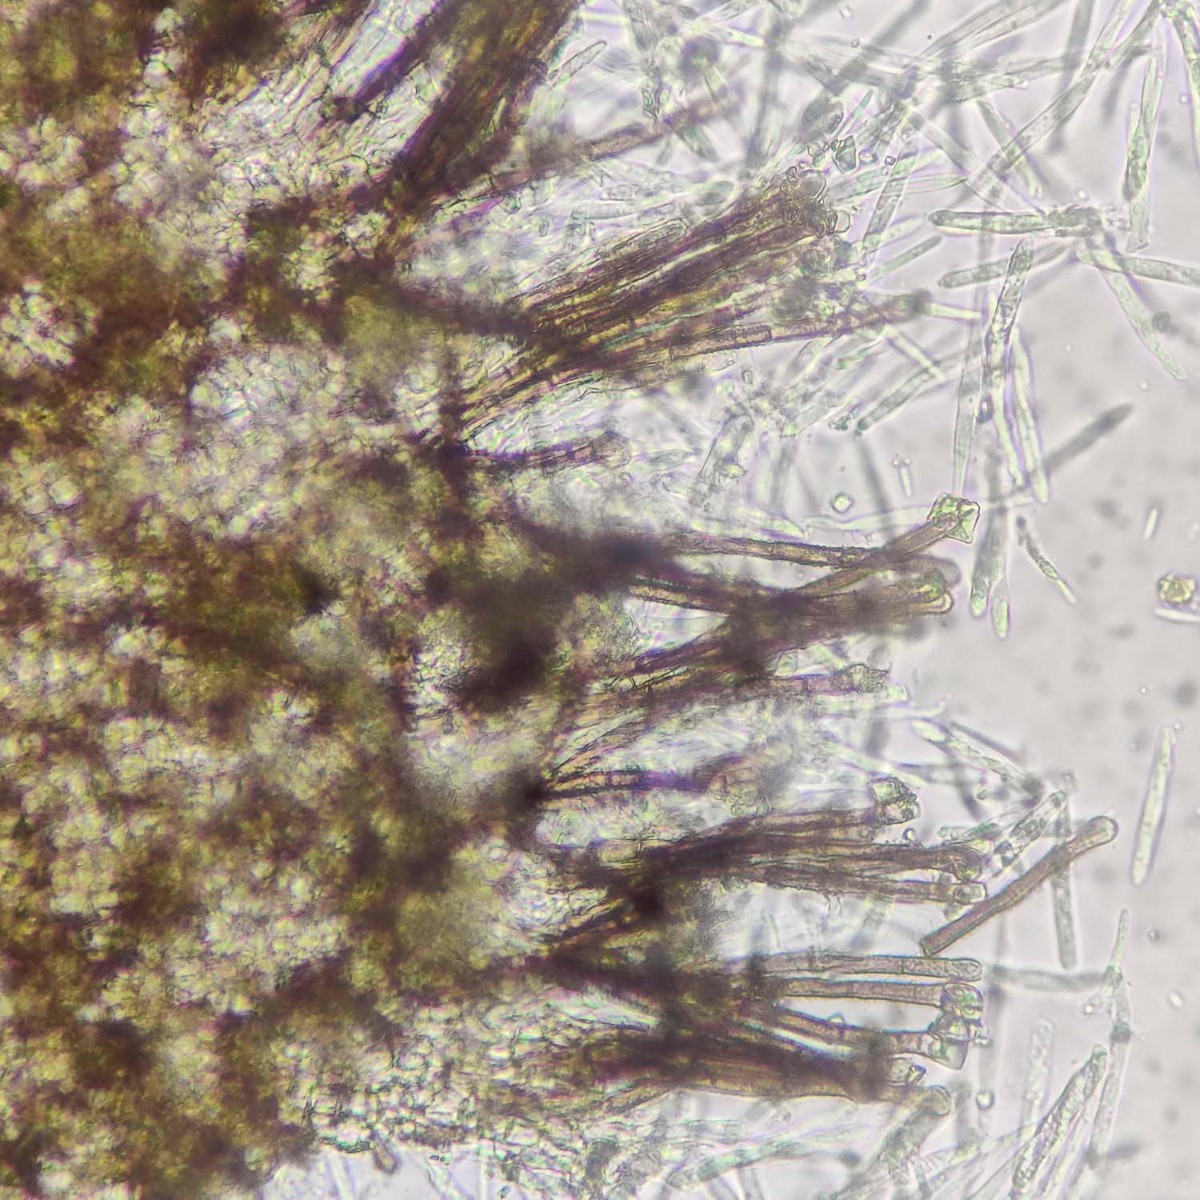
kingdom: Fungi
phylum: Ascomycota
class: Leotiomycetes
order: Helotiales
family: Lachnaceae
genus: Brunnipila
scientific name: Brunnipila brunneola
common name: læderbrun frynseskive
